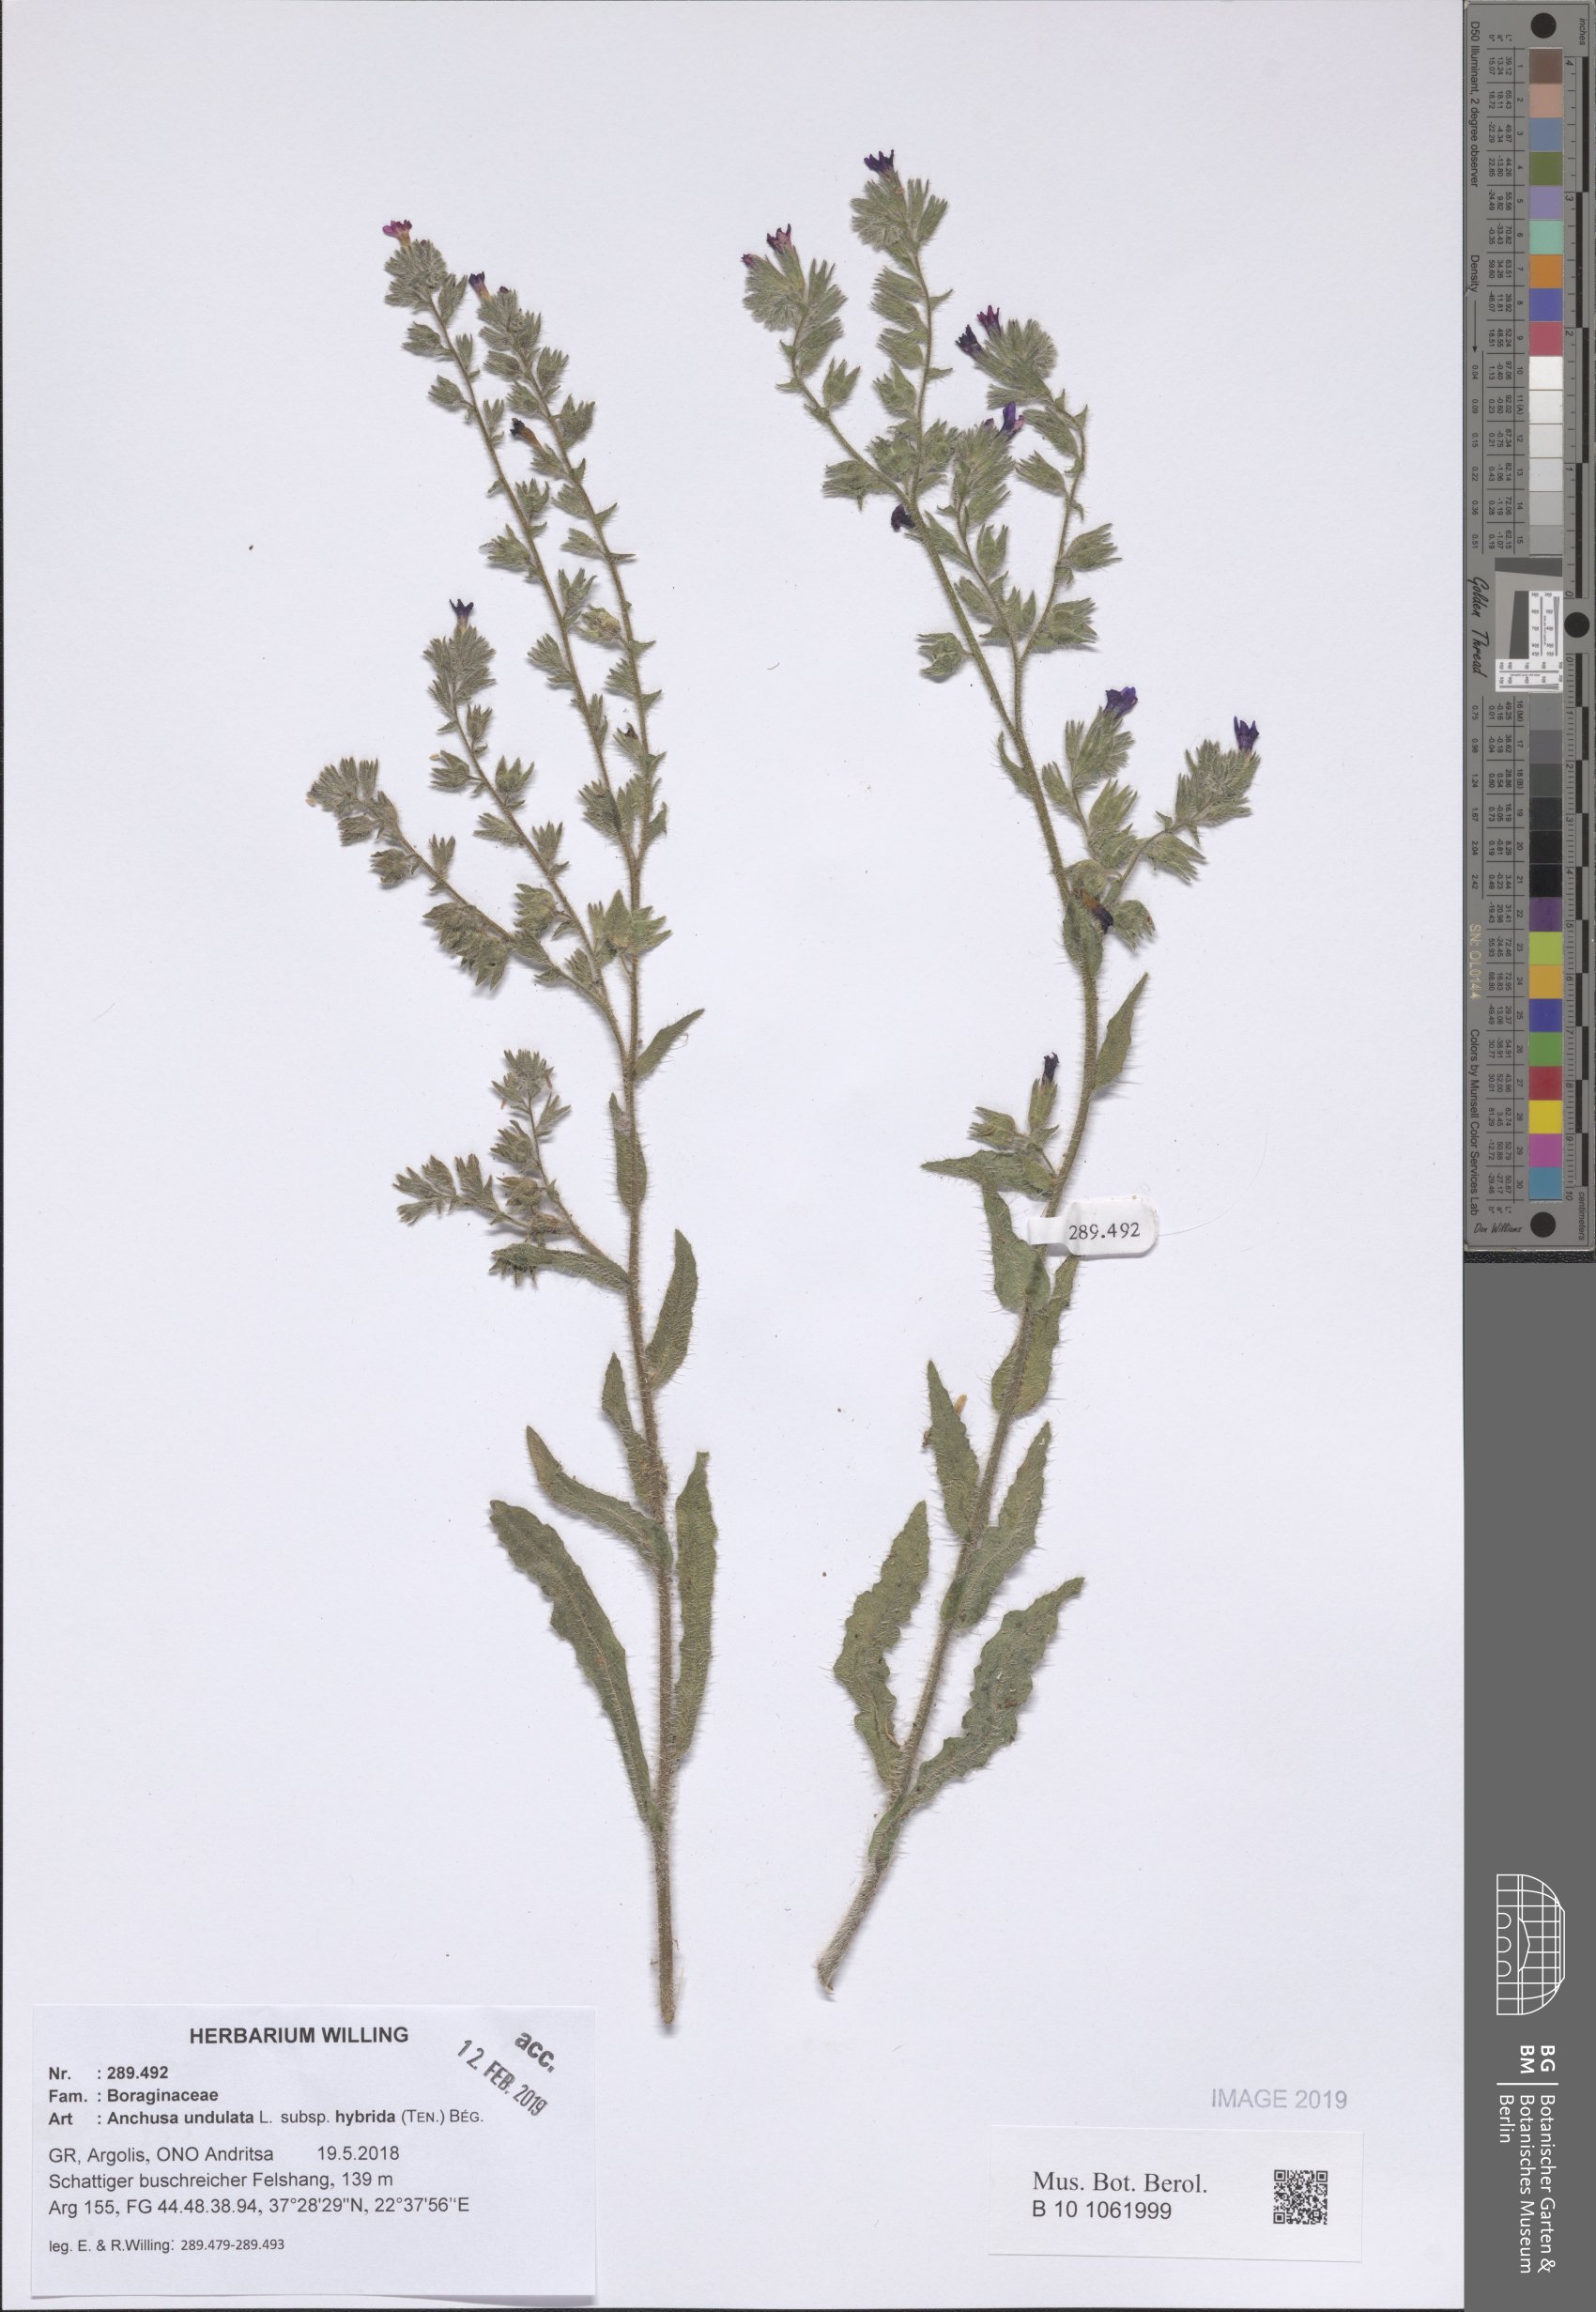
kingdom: Plantae
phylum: Tracheophyta
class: Magnoliopsida
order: Boraginales
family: Boraginaceae
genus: Anchusa
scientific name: Anchusa undulata
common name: Undulate alkanet
